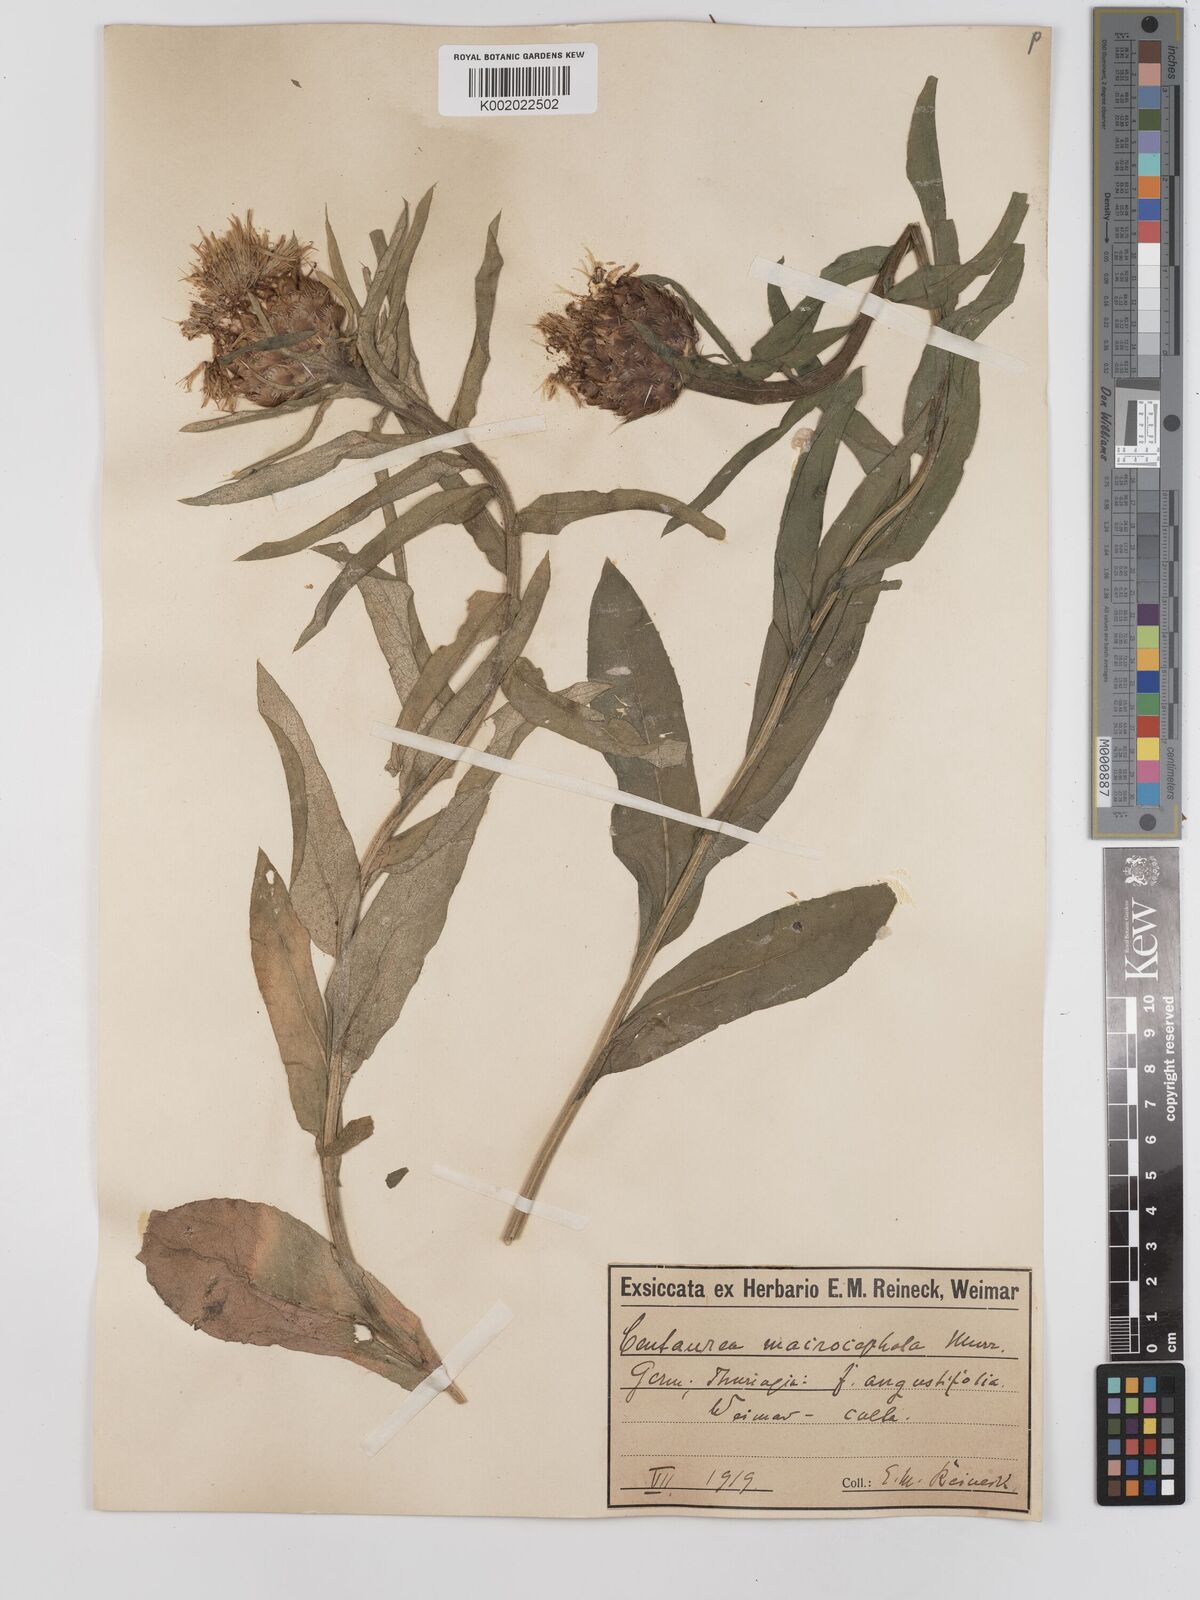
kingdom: Plantae
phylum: Tracheophyta
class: Magnoliopsida
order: Asterales
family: Asteraceae
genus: Centaurea
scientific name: Centaurea macrocephala
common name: Big-head knapweed
